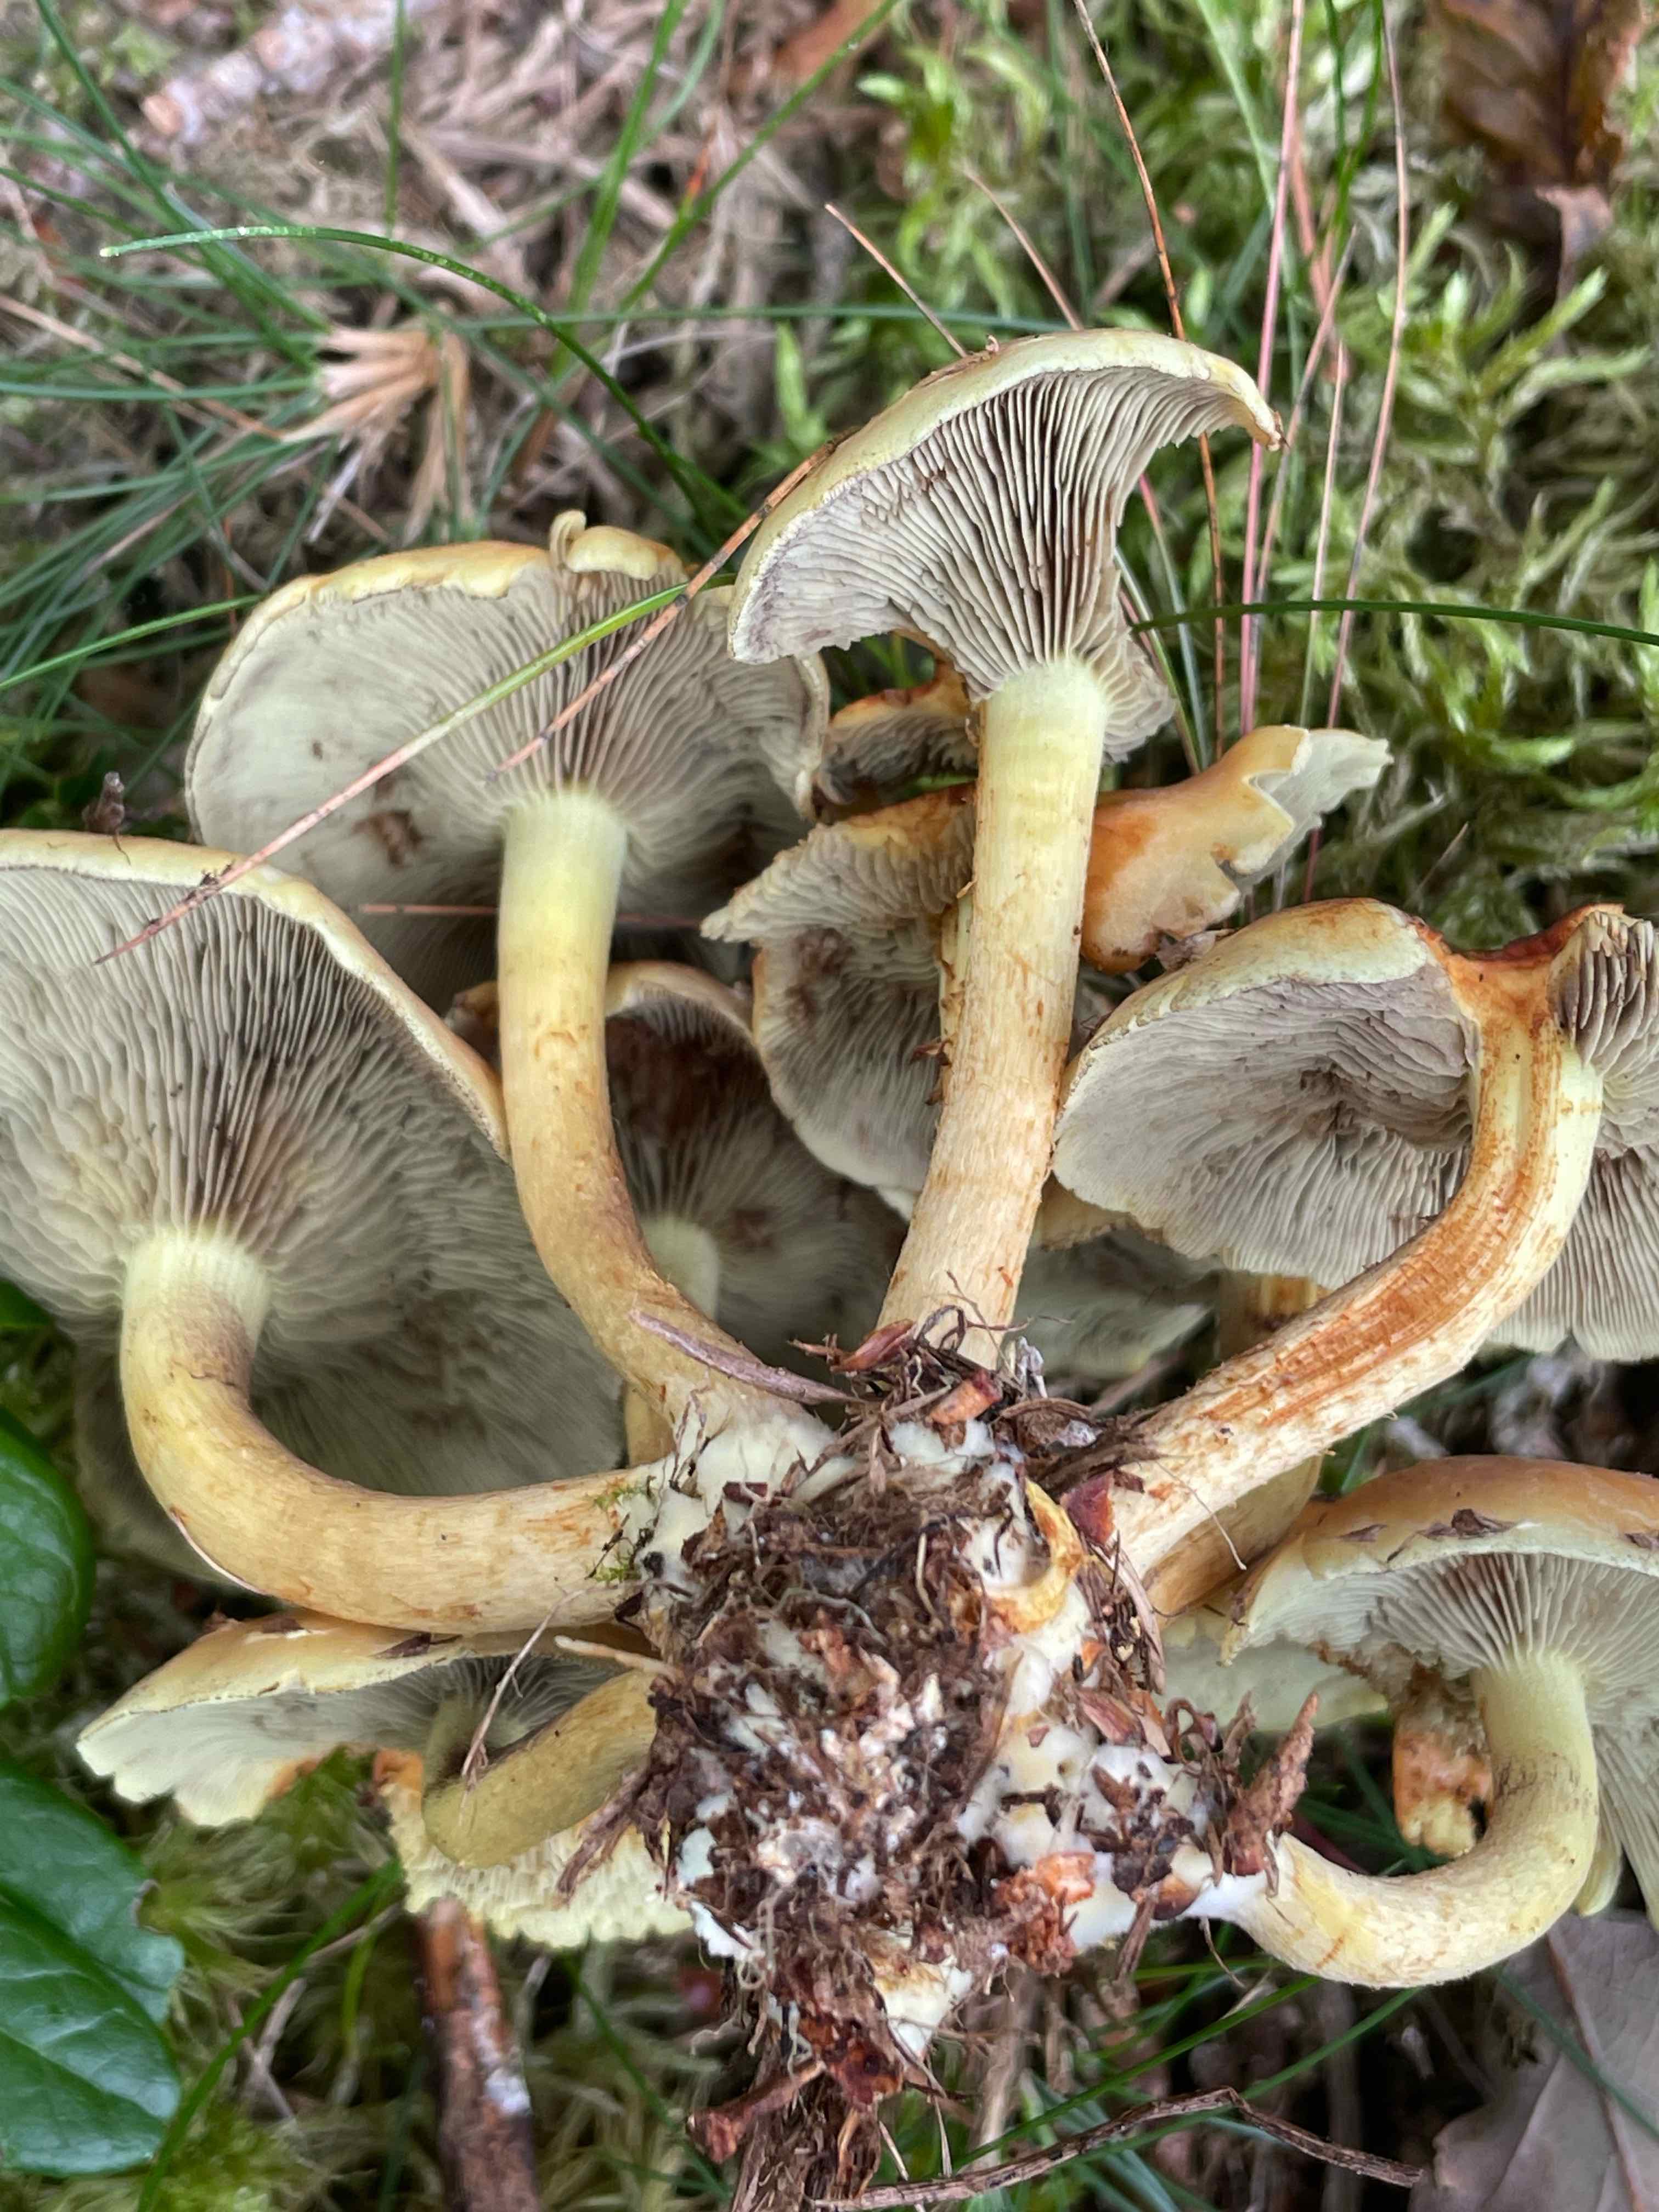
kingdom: Fungi
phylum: Basidiomycota
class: Agaricomycetes
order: Agaricales
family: Strophariaceae
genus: Hypholoma
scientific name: Hypholoma fasciculare
